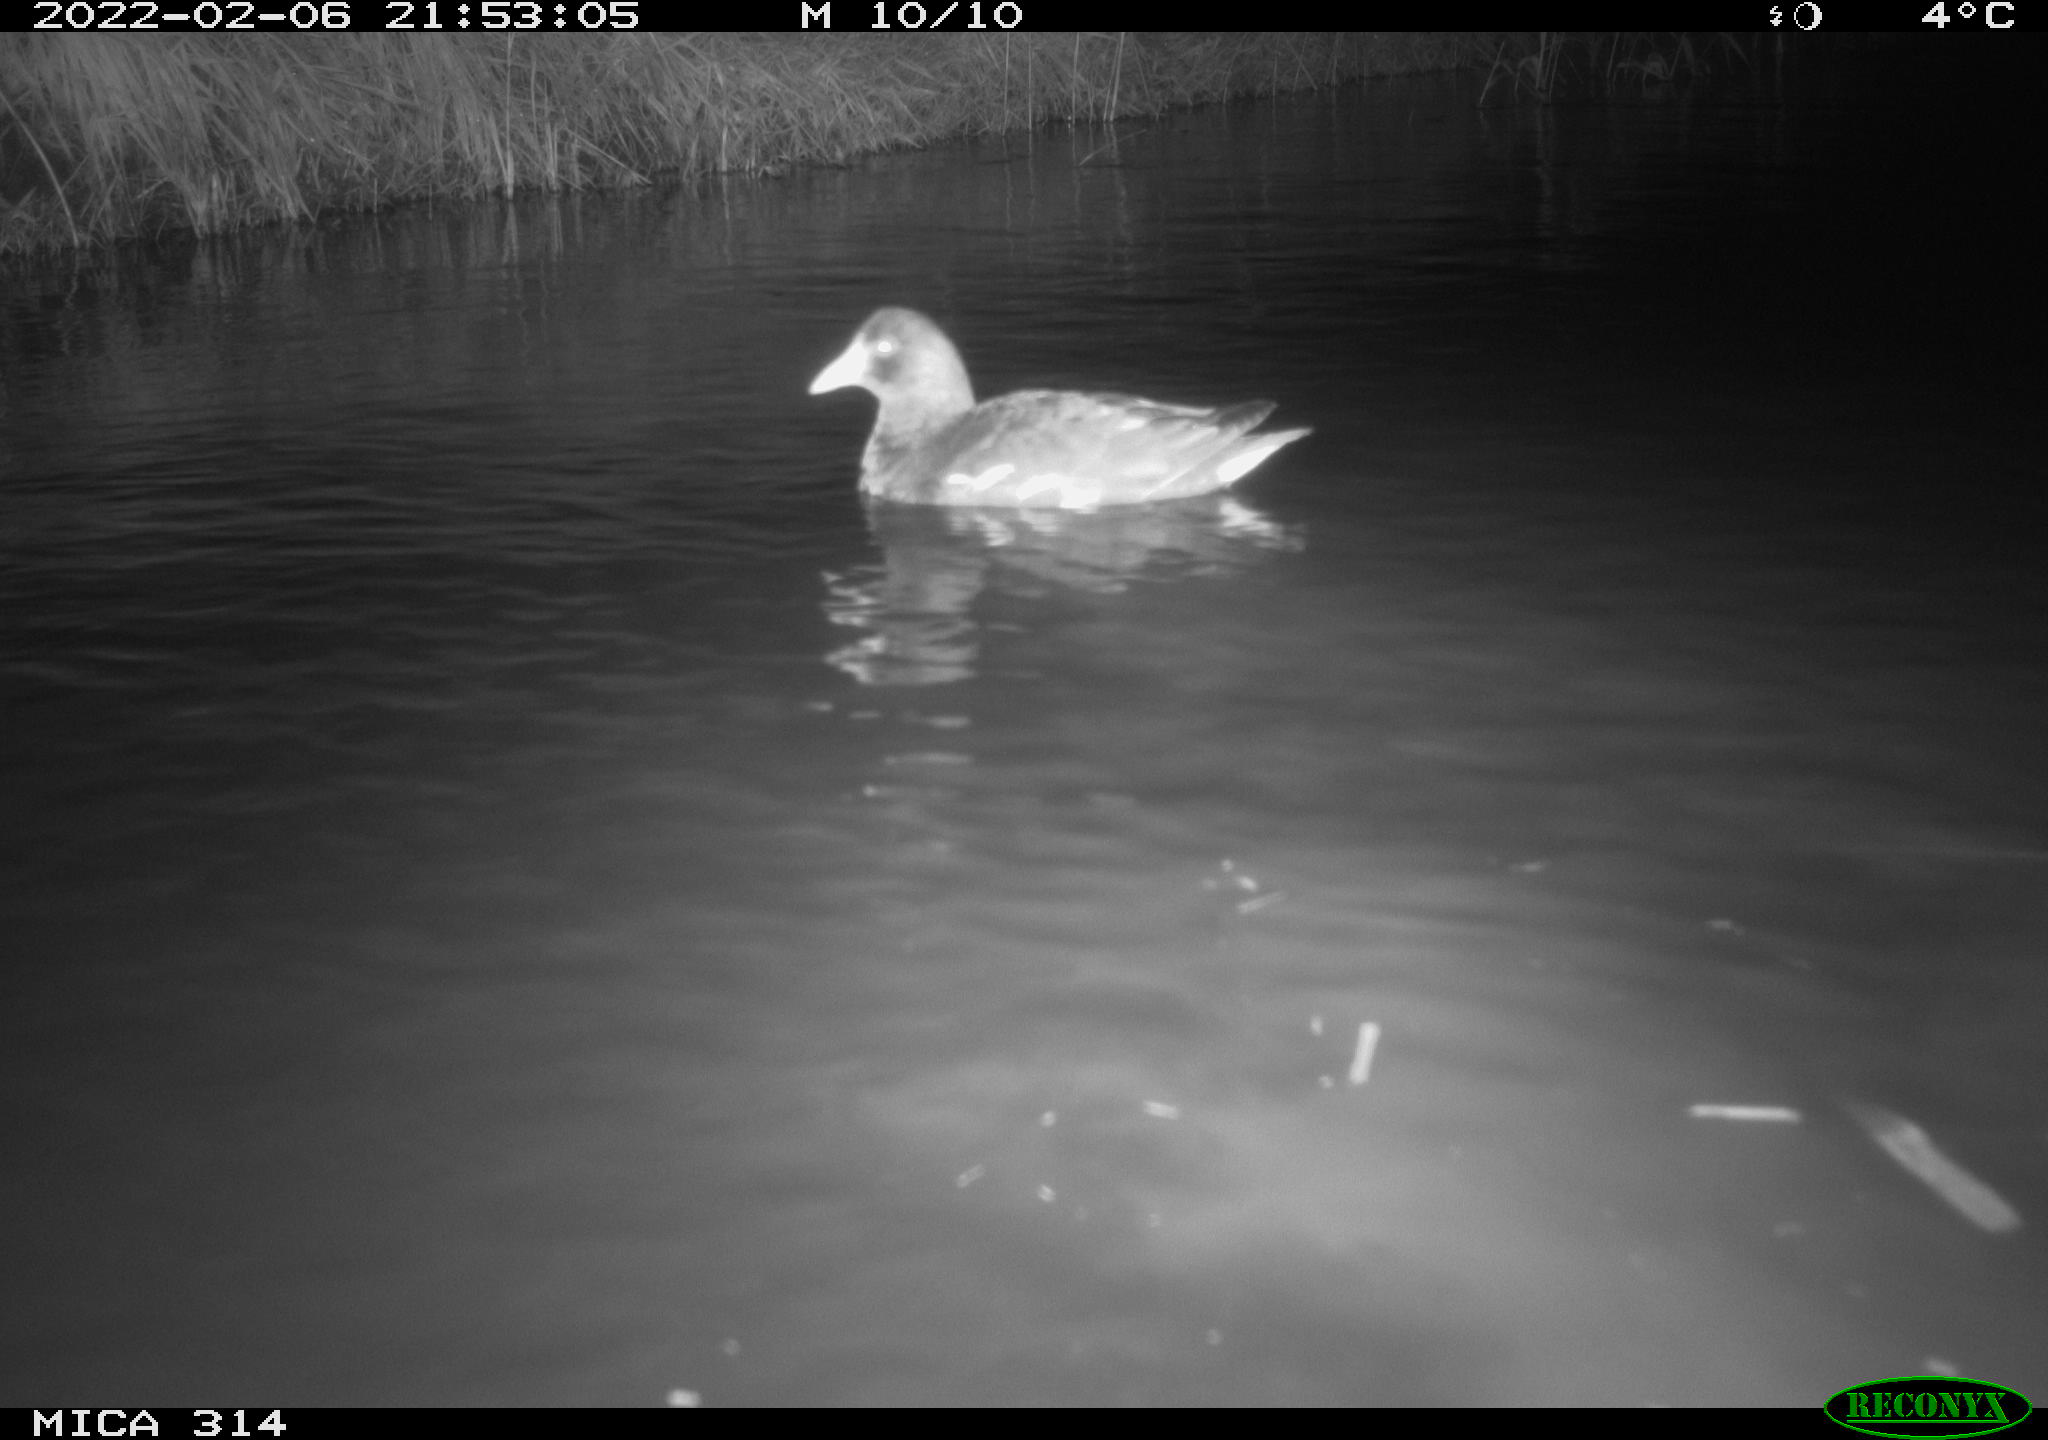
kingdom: Animalia
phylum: Chordata
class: Aves
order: Gruiformes
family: Rallidae
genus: Gallinula
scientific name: Gallinula chloropus
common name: Common moorhen
